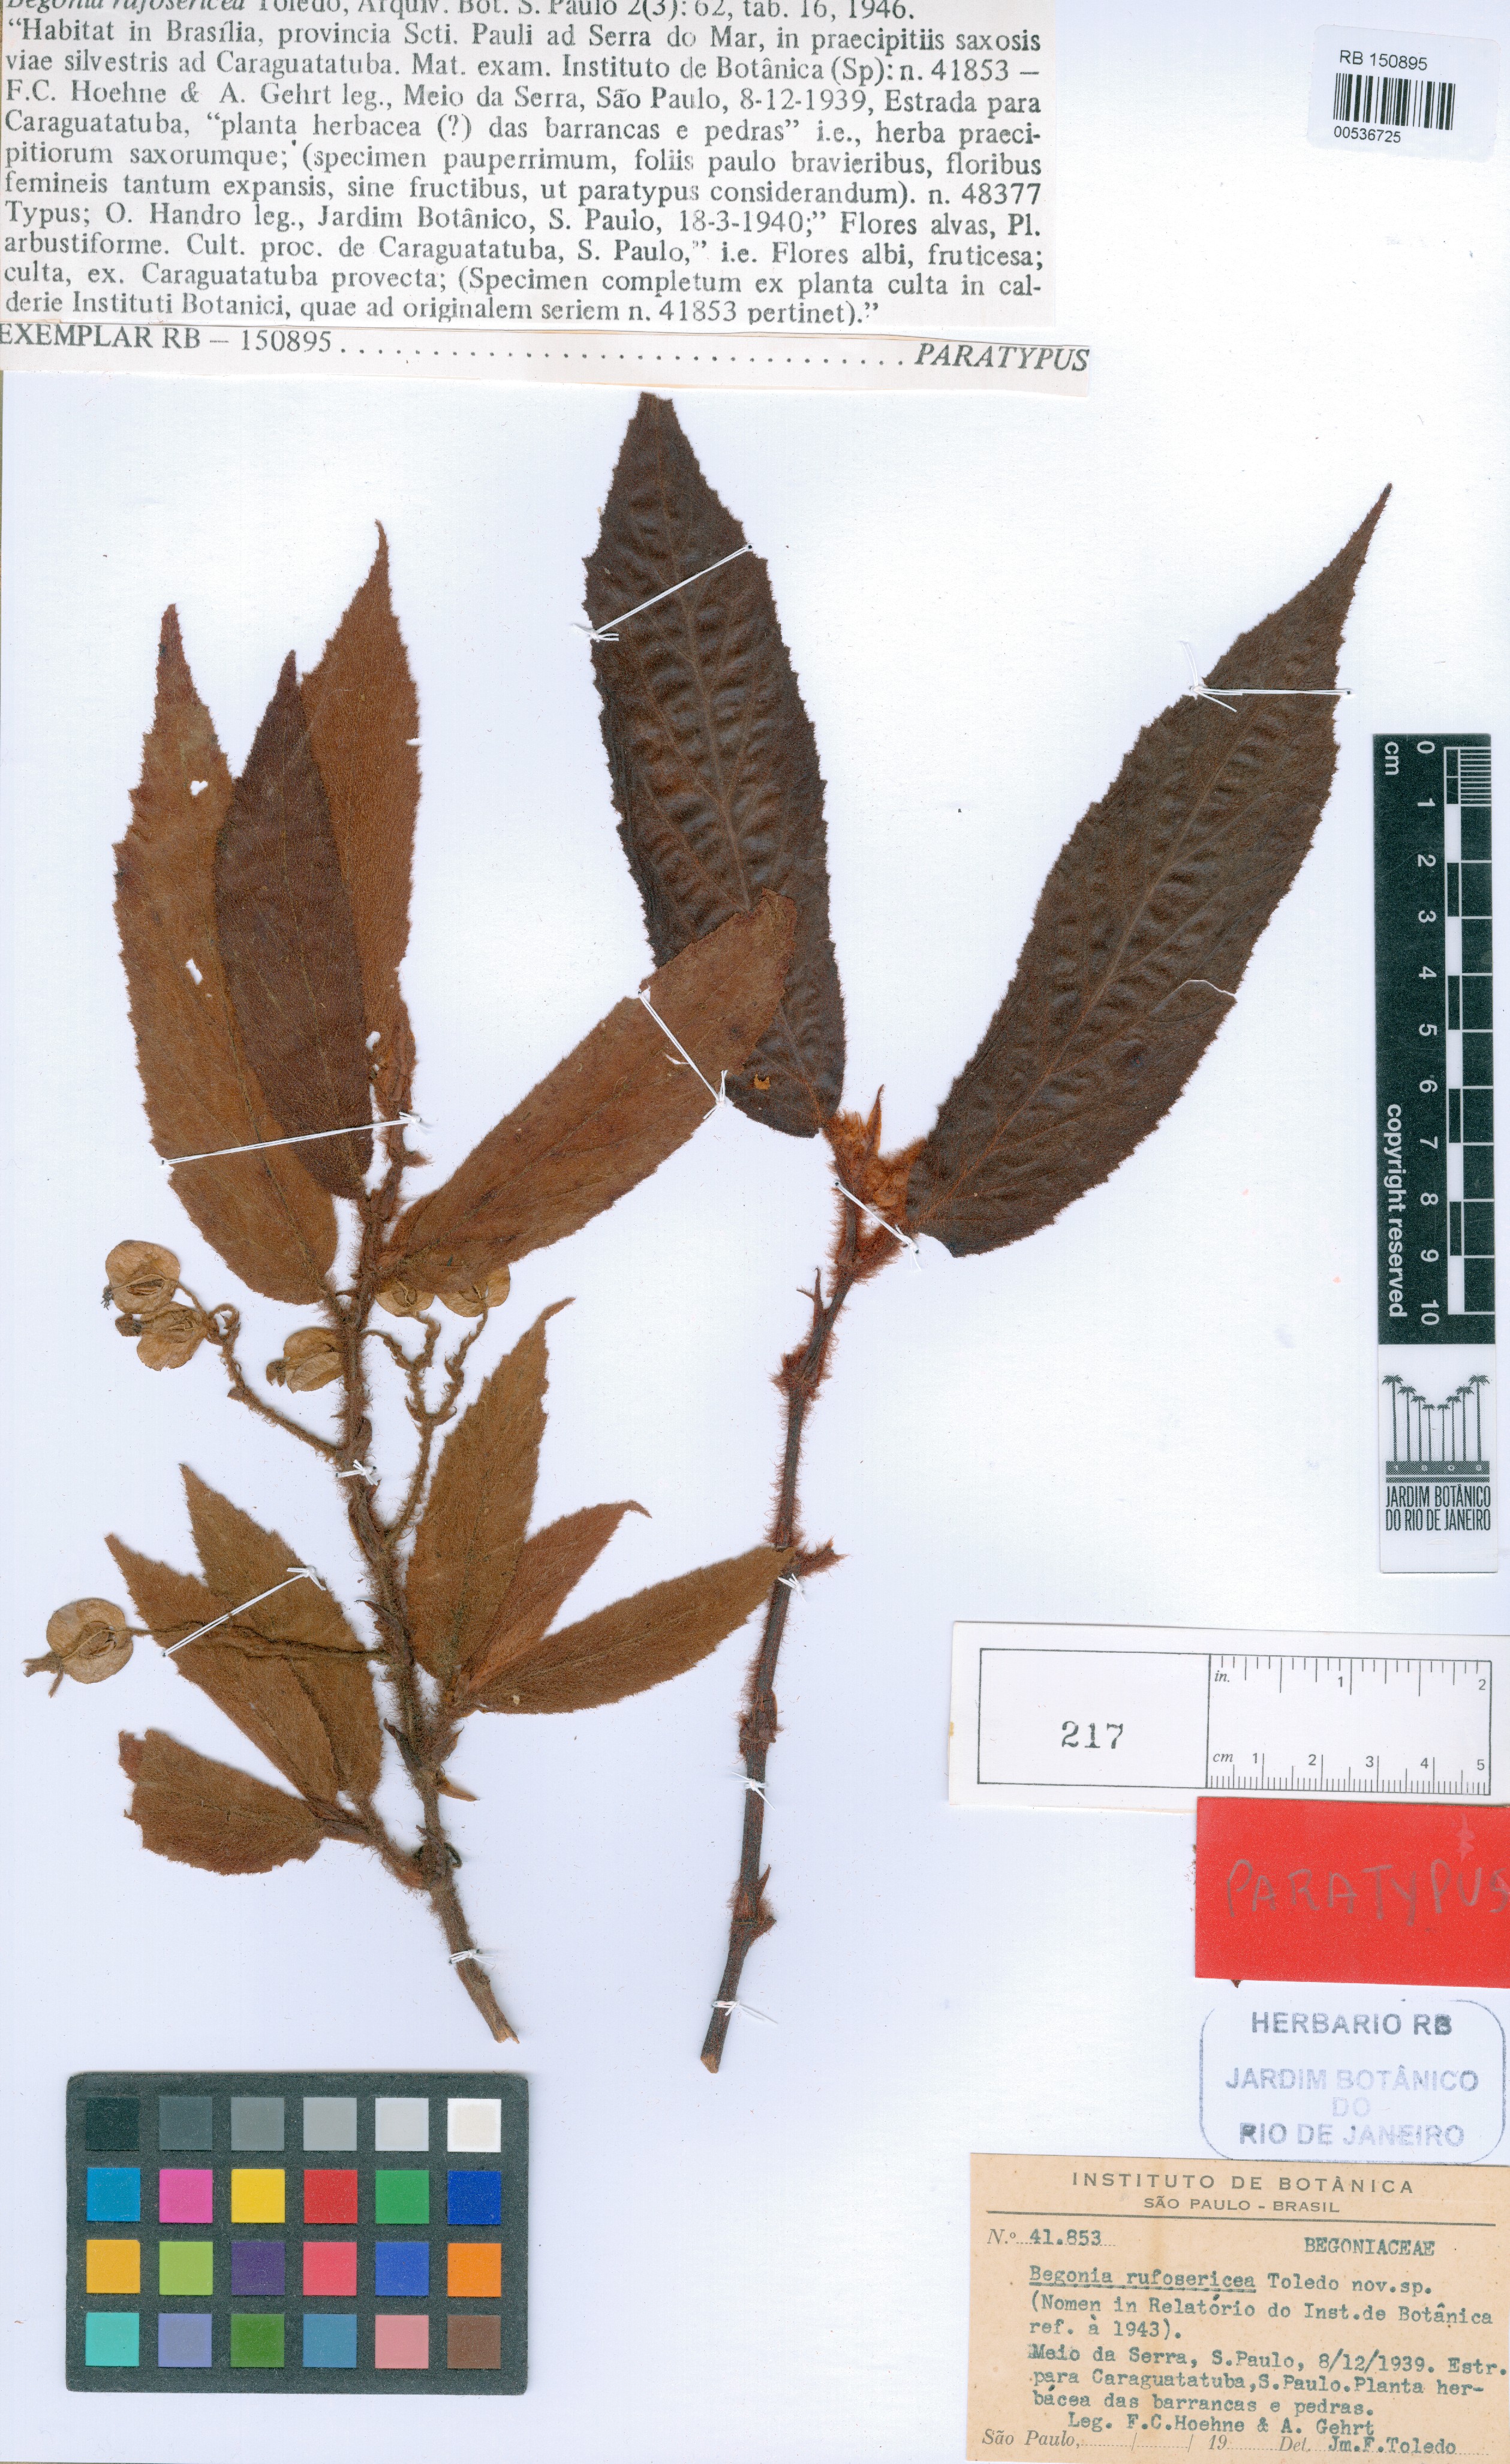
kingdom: Plantae
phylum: Tracheophyta
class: Magnoliopsida
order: Cucurbitales
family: Begoniaceae
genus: Begonia
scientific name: Begonia rufosericea
